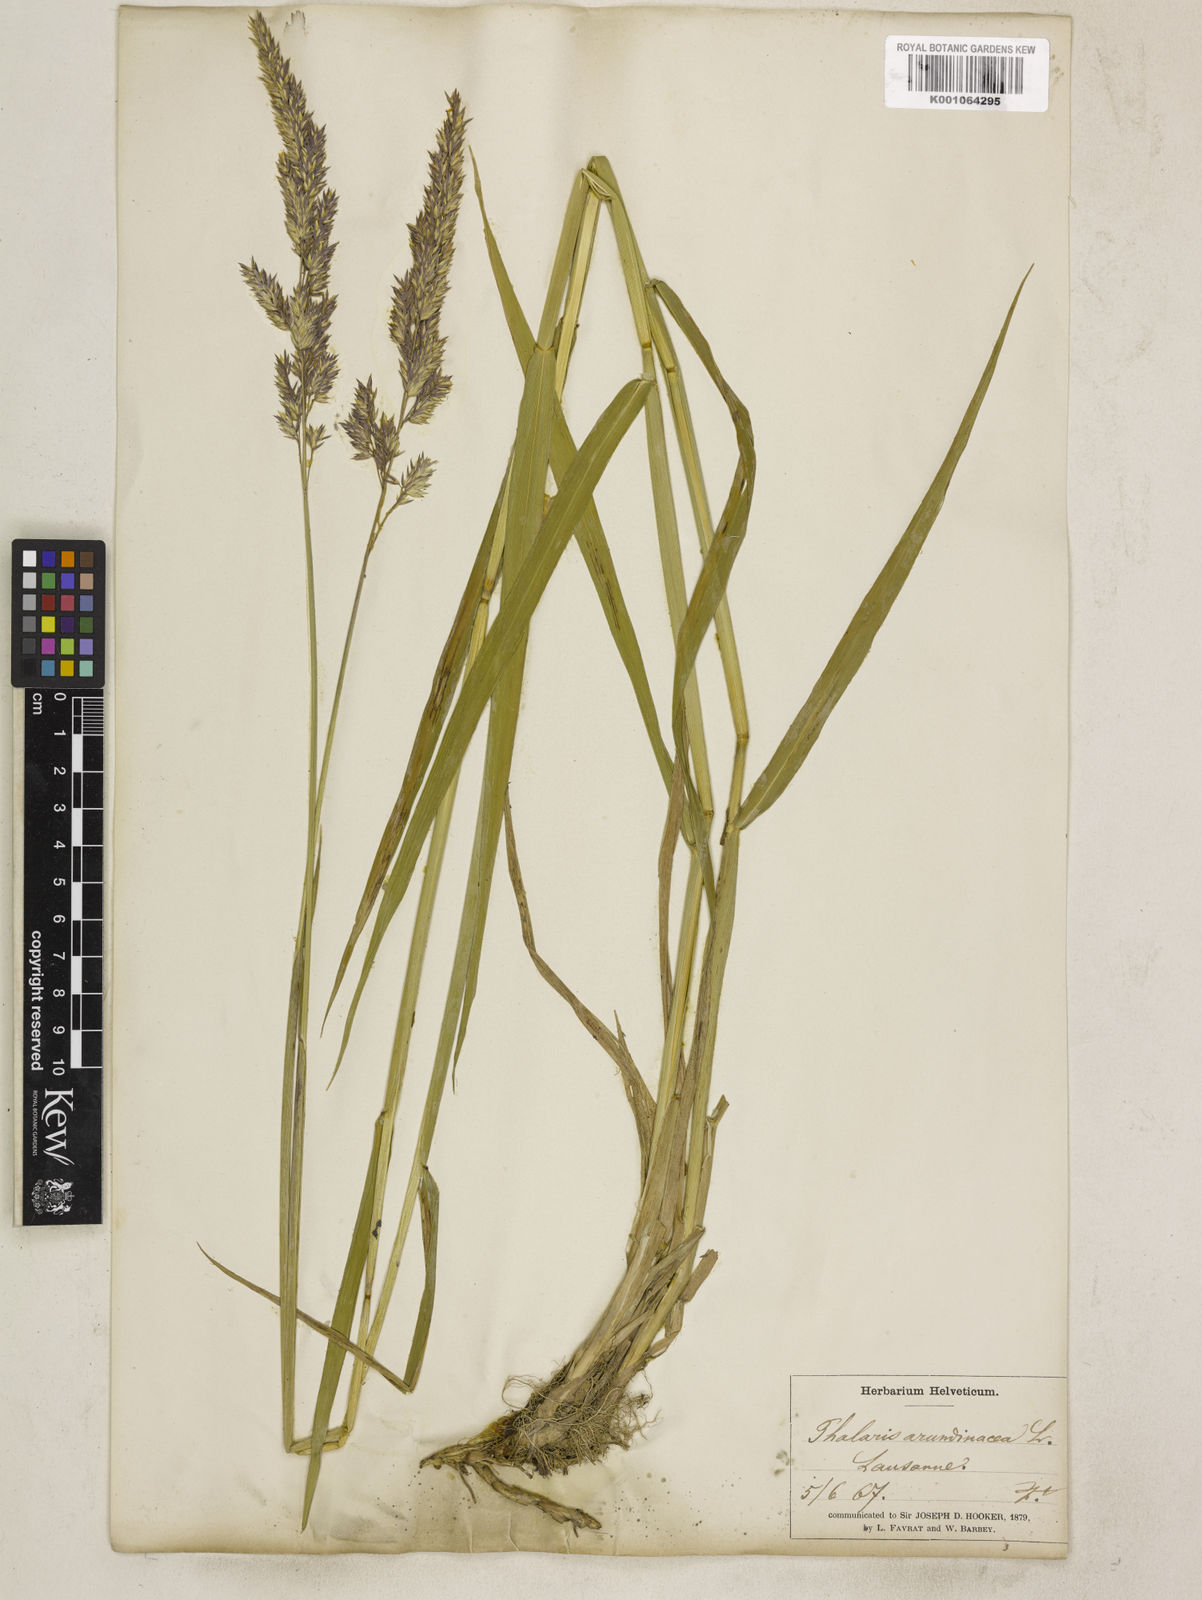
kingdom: Plantae
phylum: Tracheophyta
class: Liliopsida
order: Poales
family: Poaceae
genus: Phalaris
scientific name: Phalaris arundinacea
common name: Reed canary-grass
